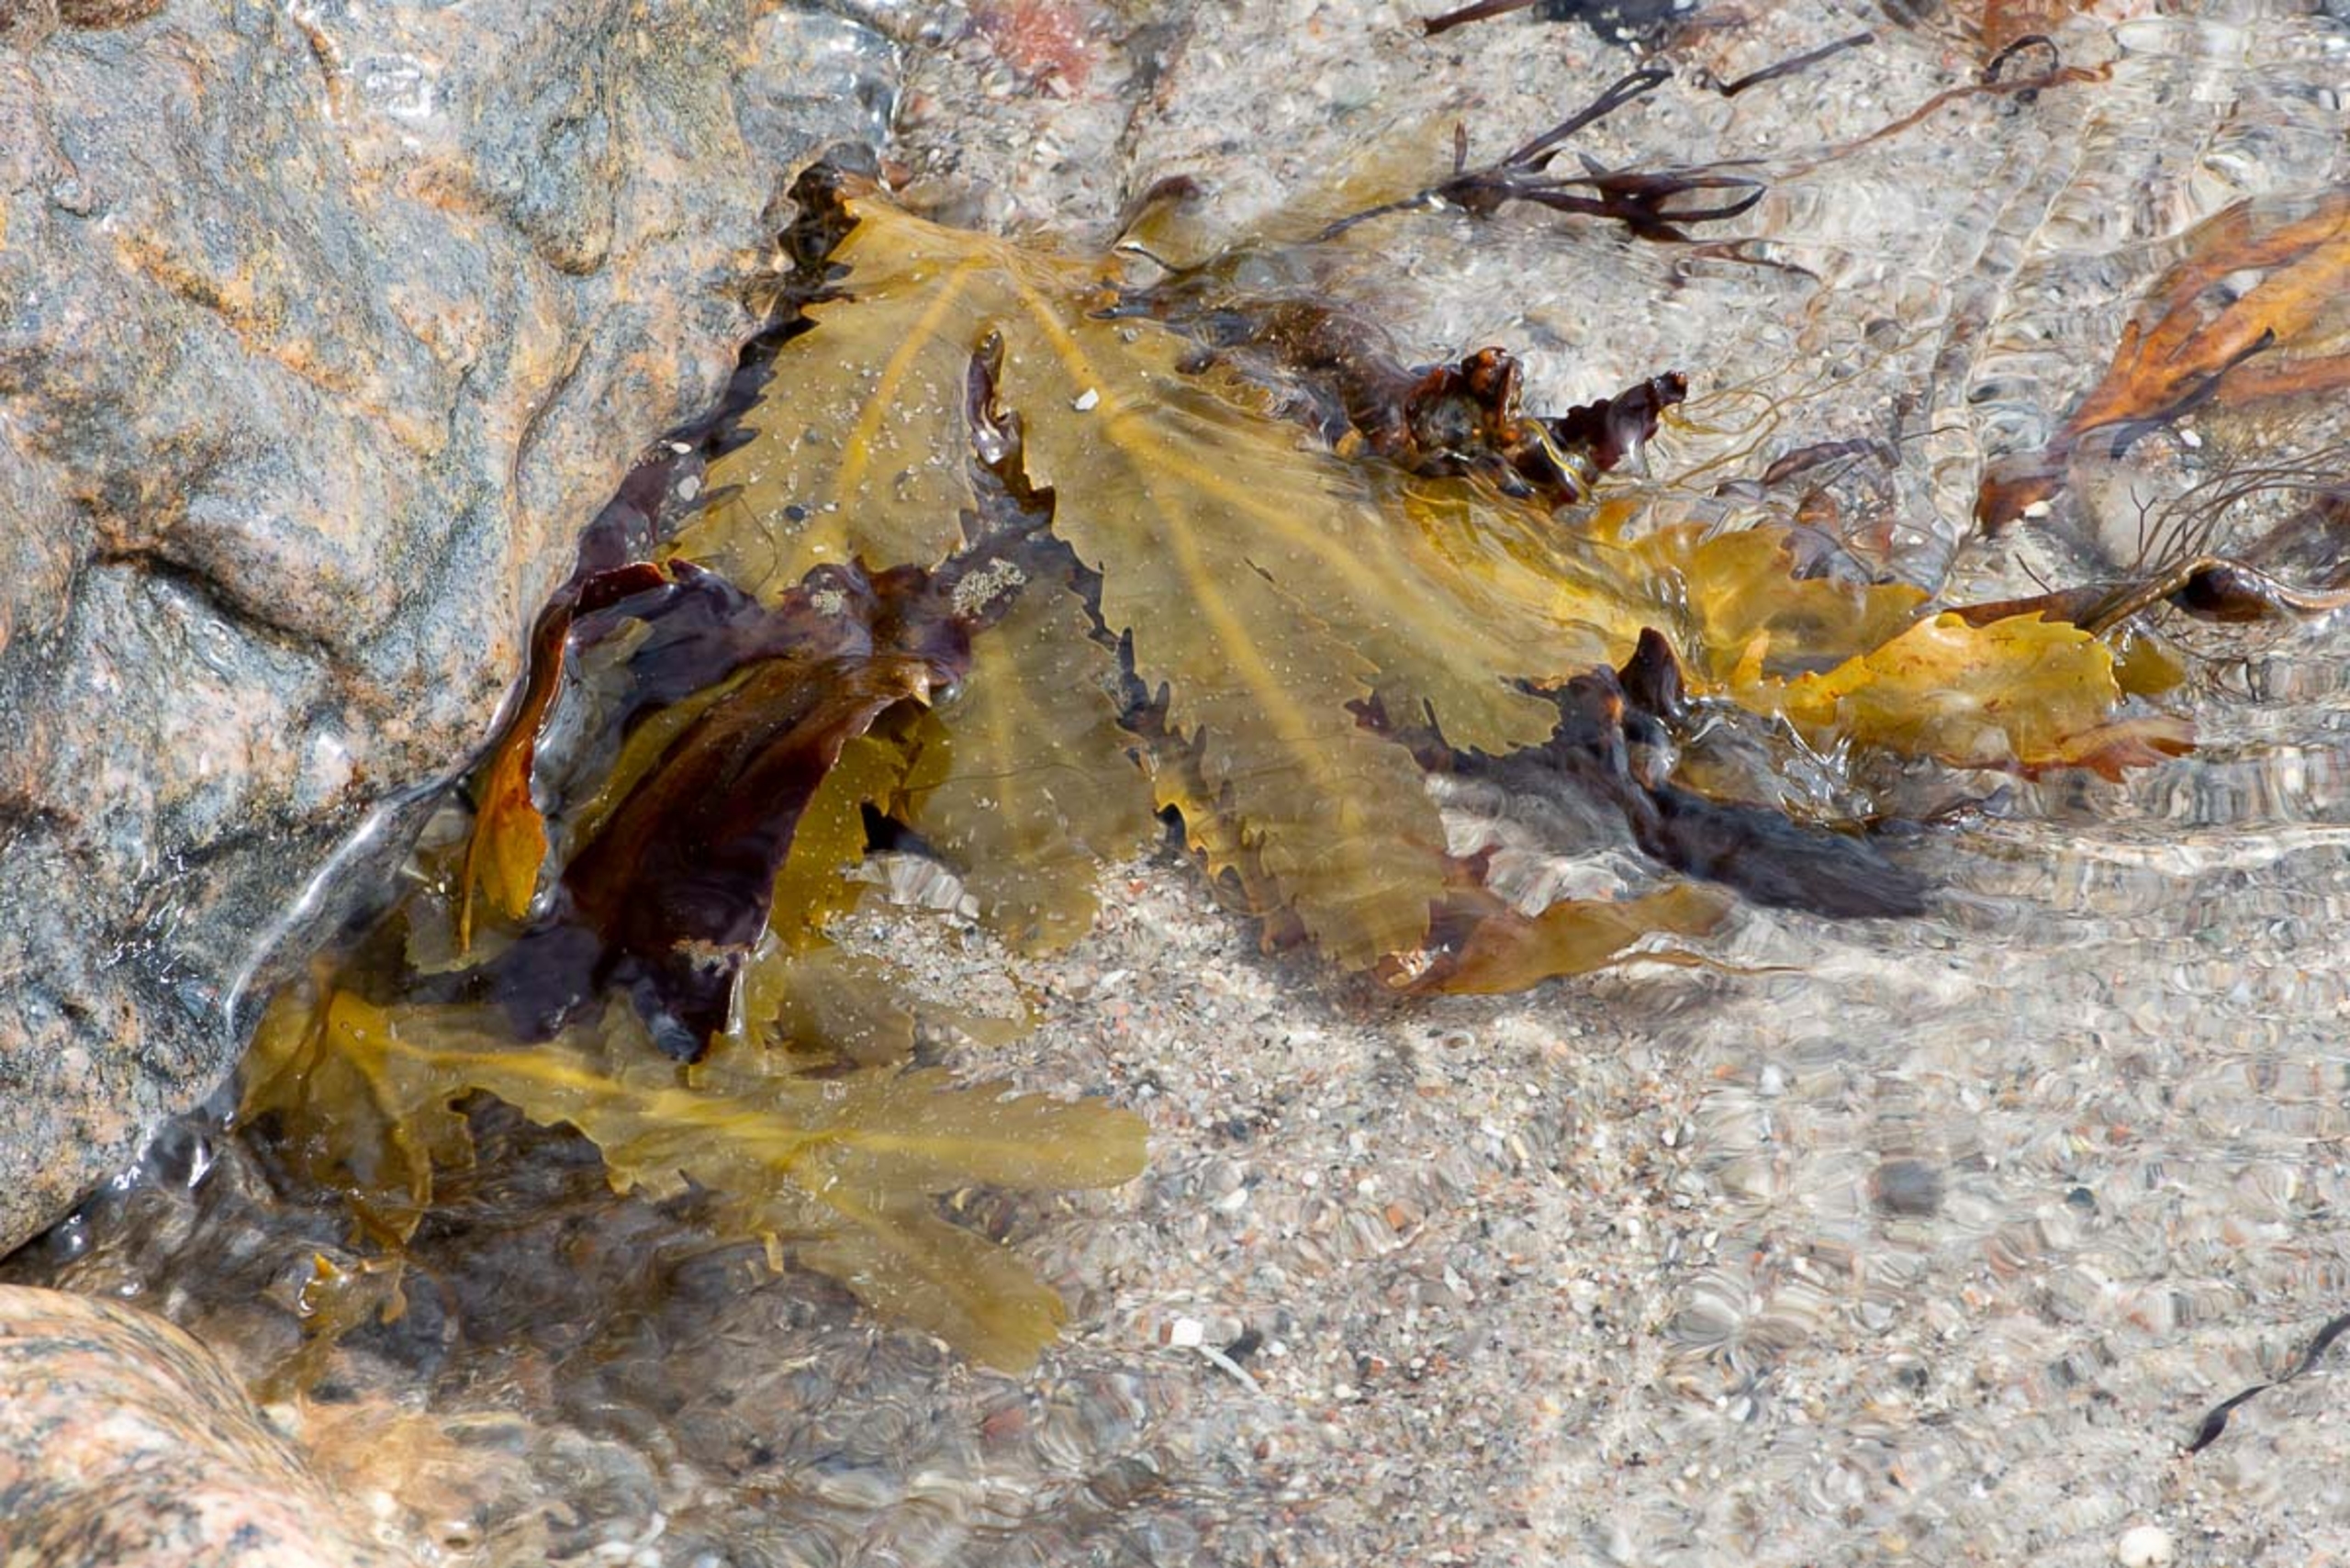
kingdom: Chromista
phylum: Ochrophyta
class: Phaeophyceae
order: Fucales
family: Fucaceae
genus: Fucus
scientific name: Fucus serratus
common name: Savtang
